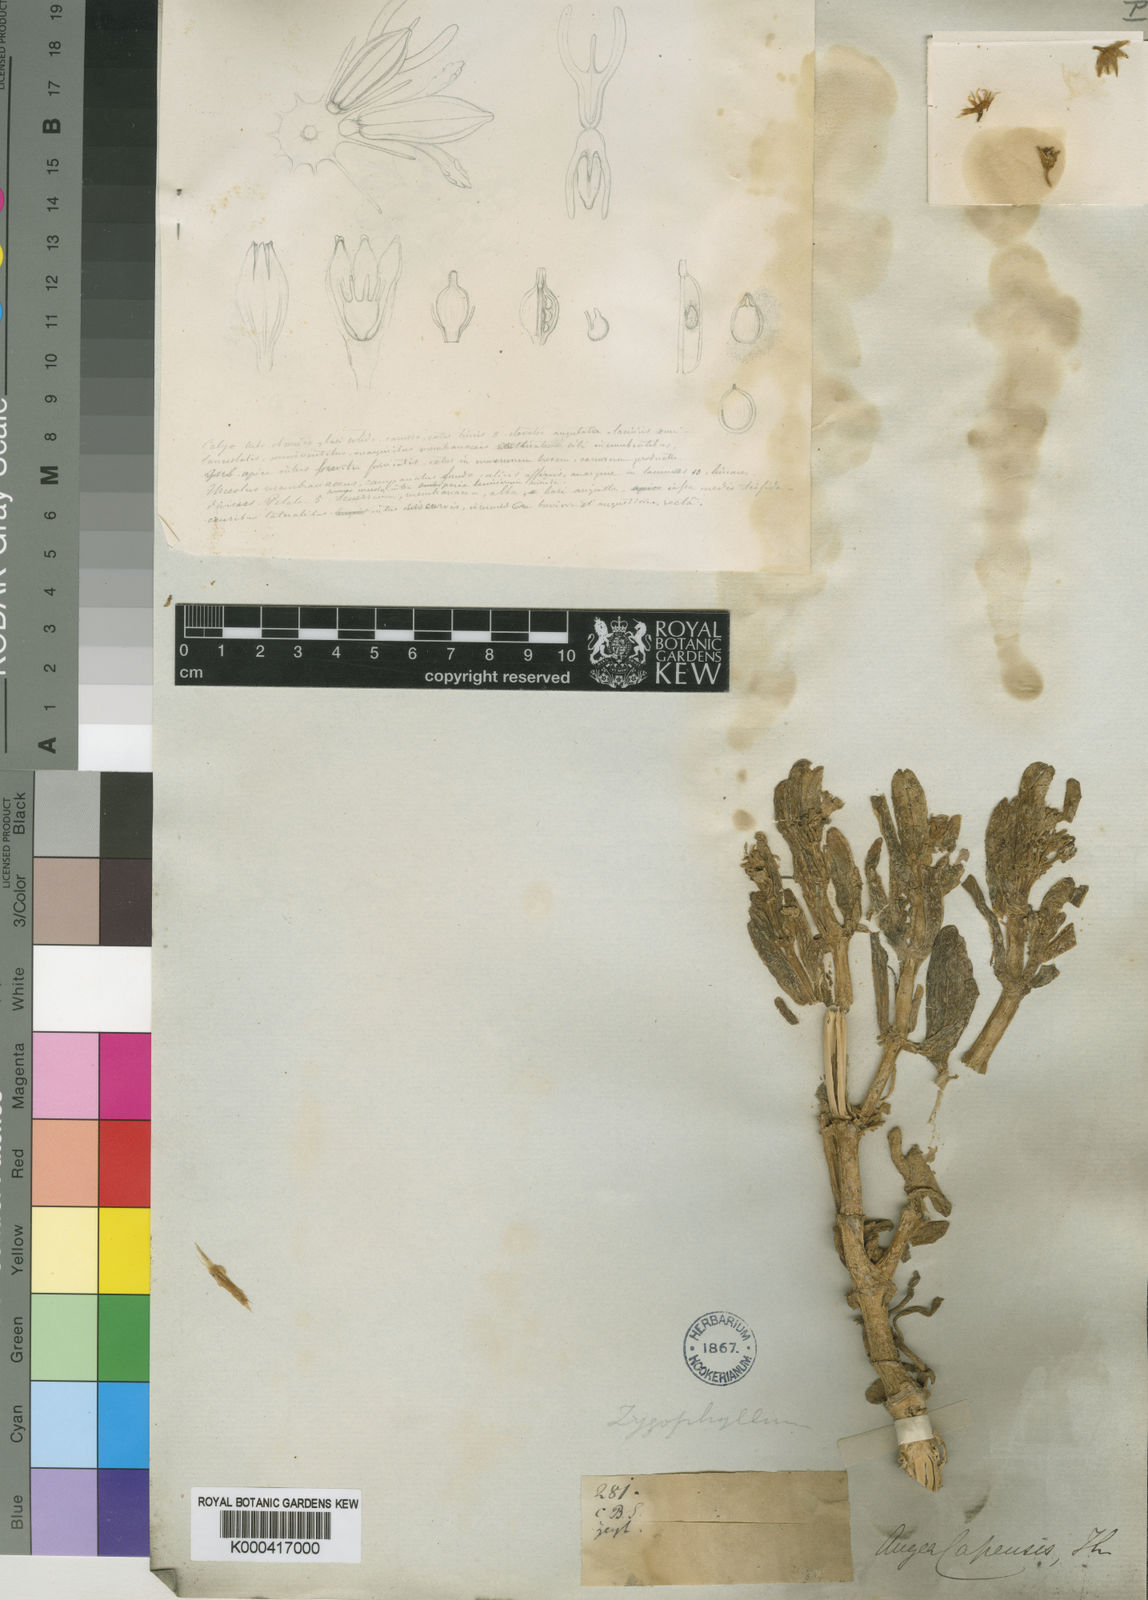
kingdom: Plantae
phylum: Tracheophyta
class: Magnoliopsida
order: Zygophyllales
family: Zygophyllaceae
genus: Augea
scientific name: Augea capensis
